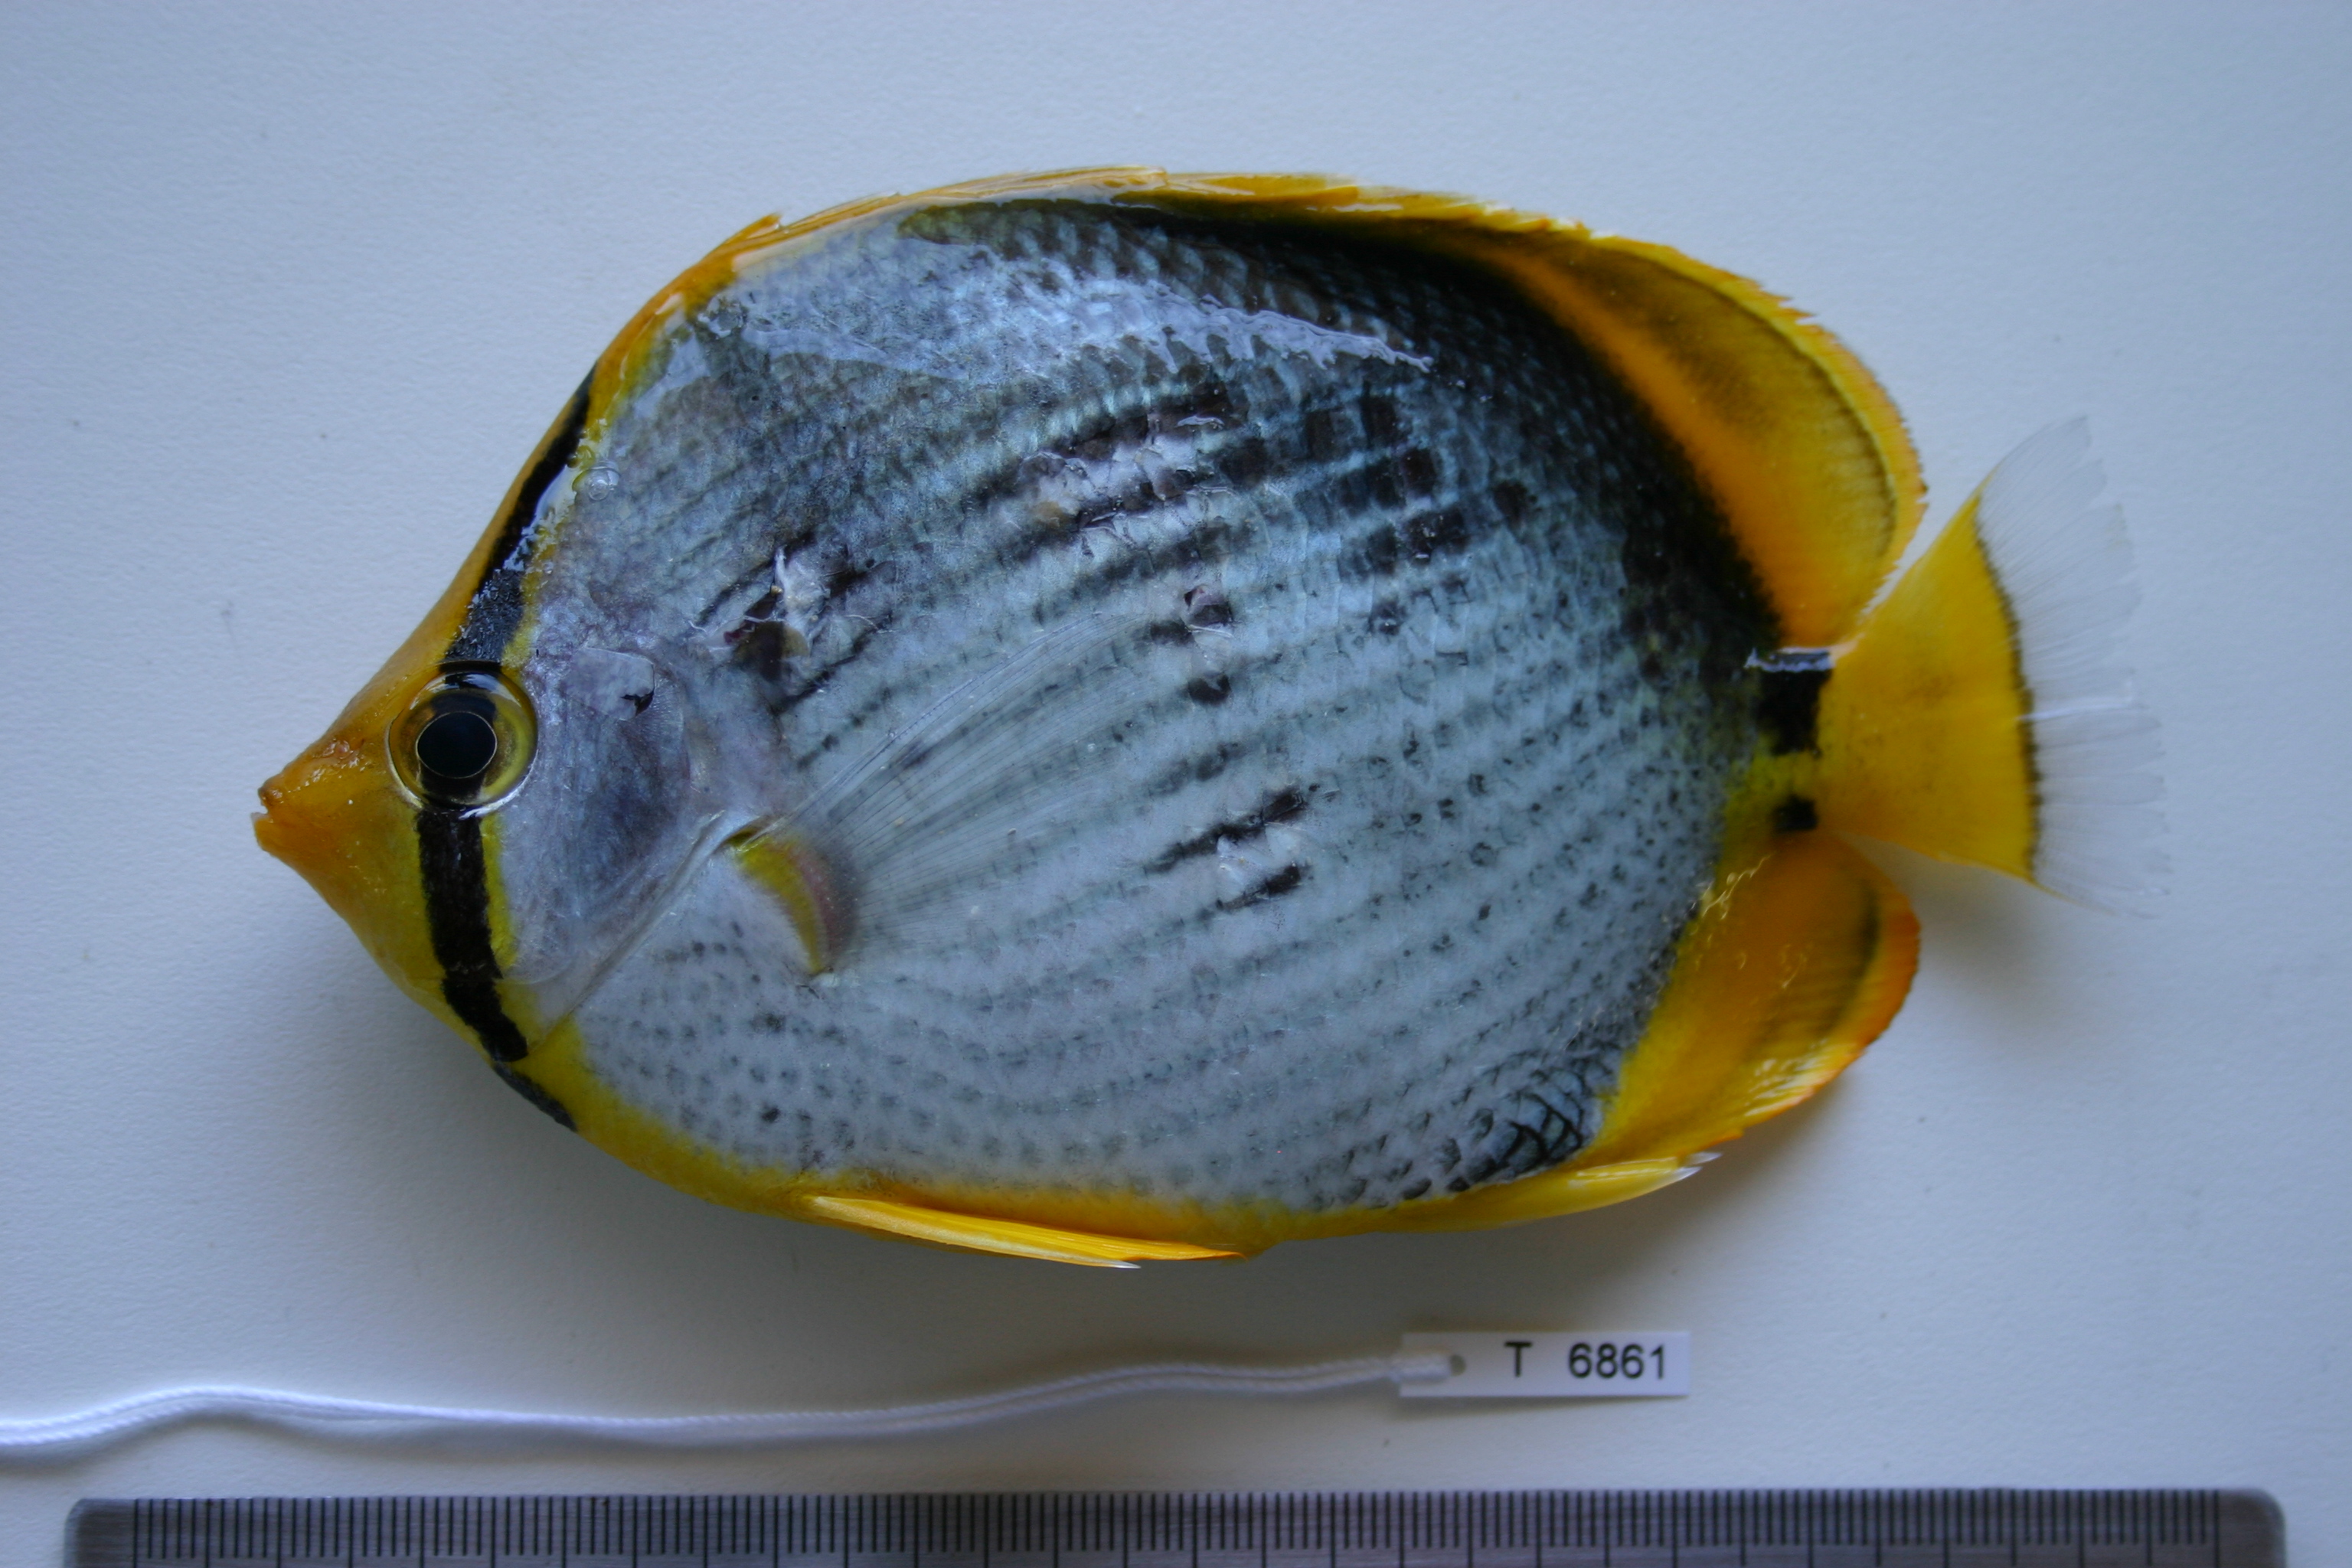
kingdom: Animalia
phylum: Chordata
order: Perciformes
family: Chaetodontidae
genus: Chaetodon
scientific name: Chaetodon melannotus
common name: Blackback butterflyfish
